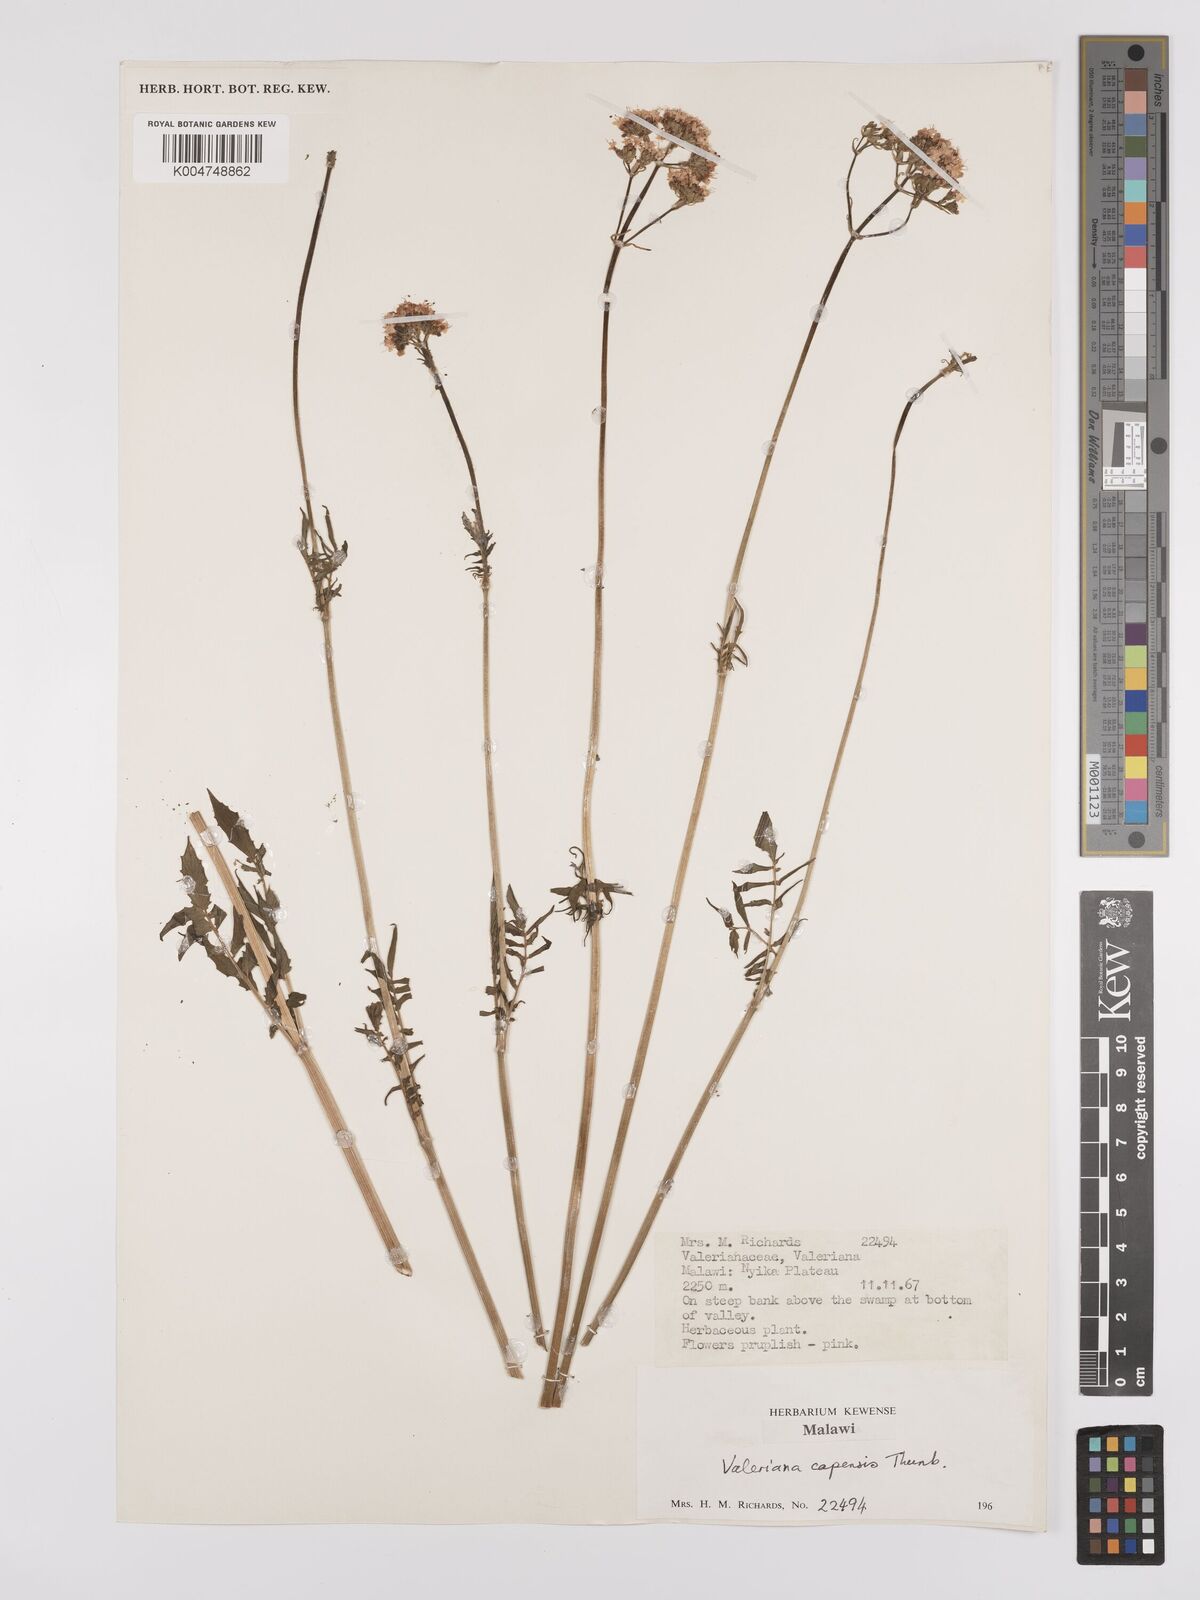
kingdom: Plantae
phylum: Tracheophyta
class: Magnoliopsida
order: Dipsacales
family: Caprifoliaceae
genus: Valeriana
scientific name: Valeriana capensis
